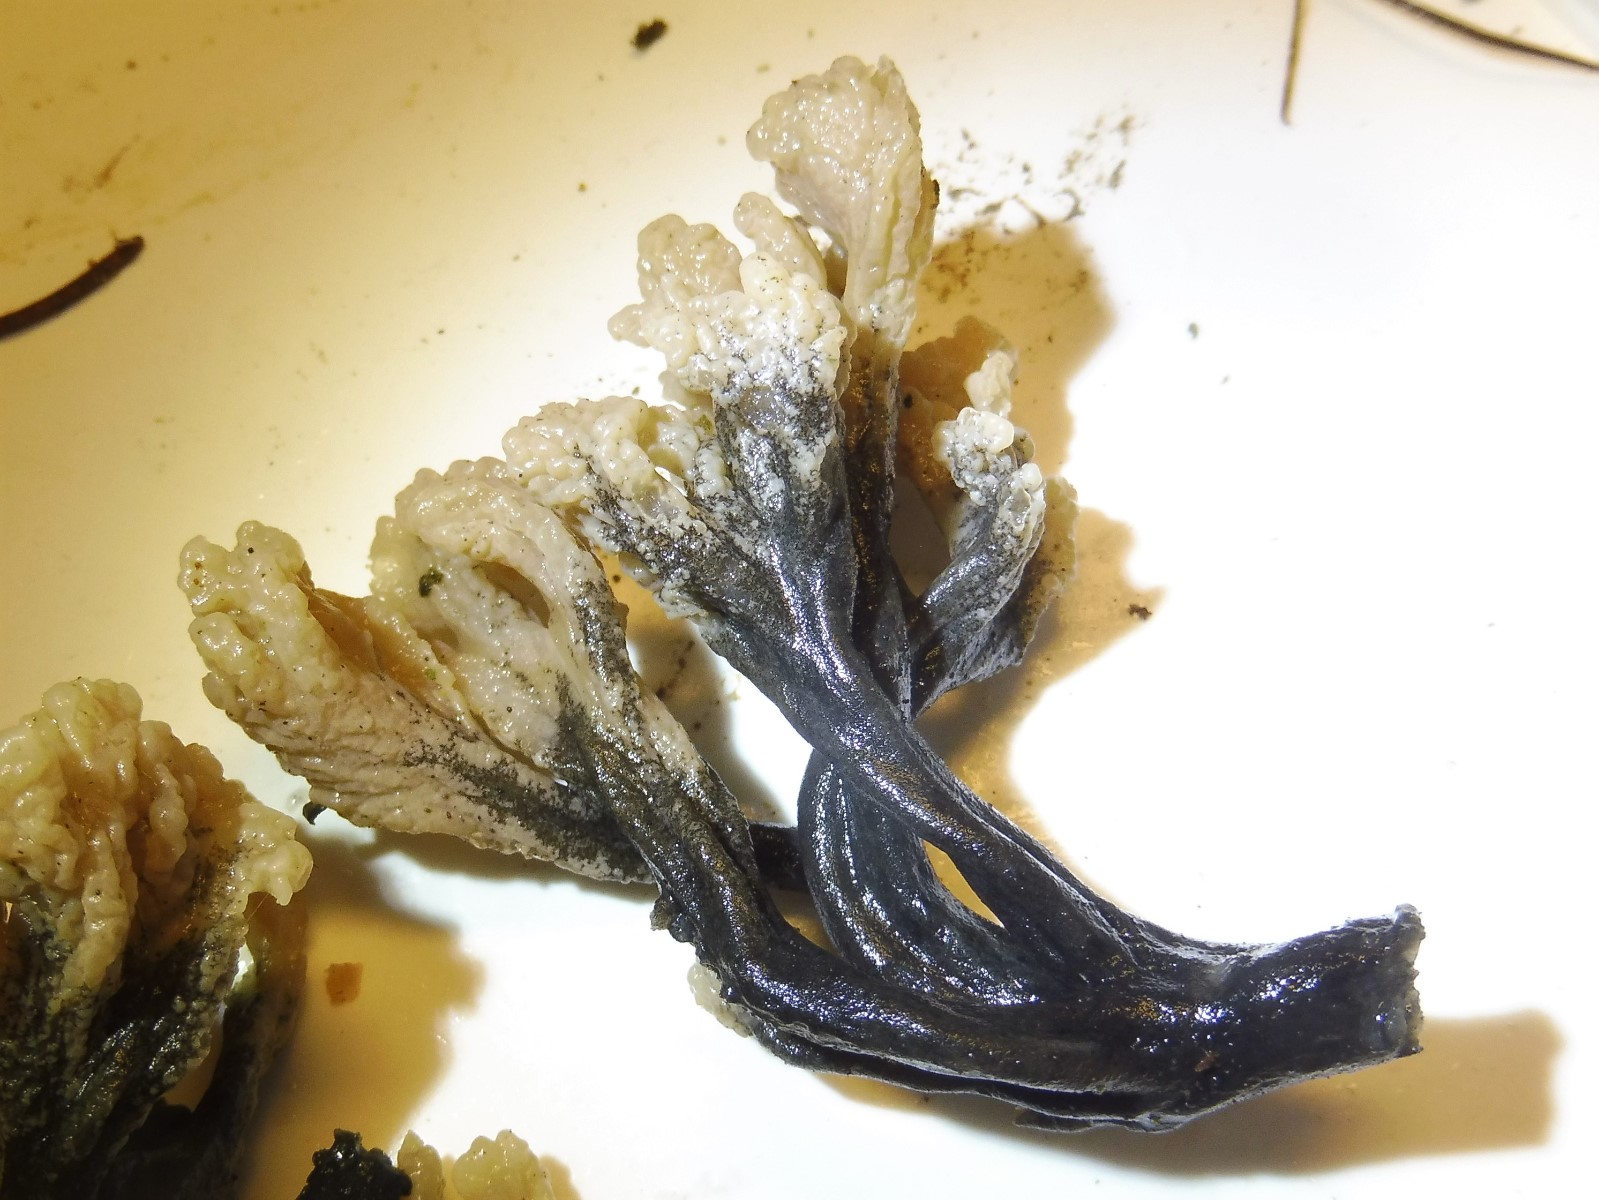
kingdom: Fungi
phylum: Ascomycota
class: Sordariomycetes
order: Sordariales
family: Helminthosphaeriaceae
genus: Helminthosphaeria
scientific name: Helminthosphaeria clavariarum
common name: trold-svampesnyltekerne
